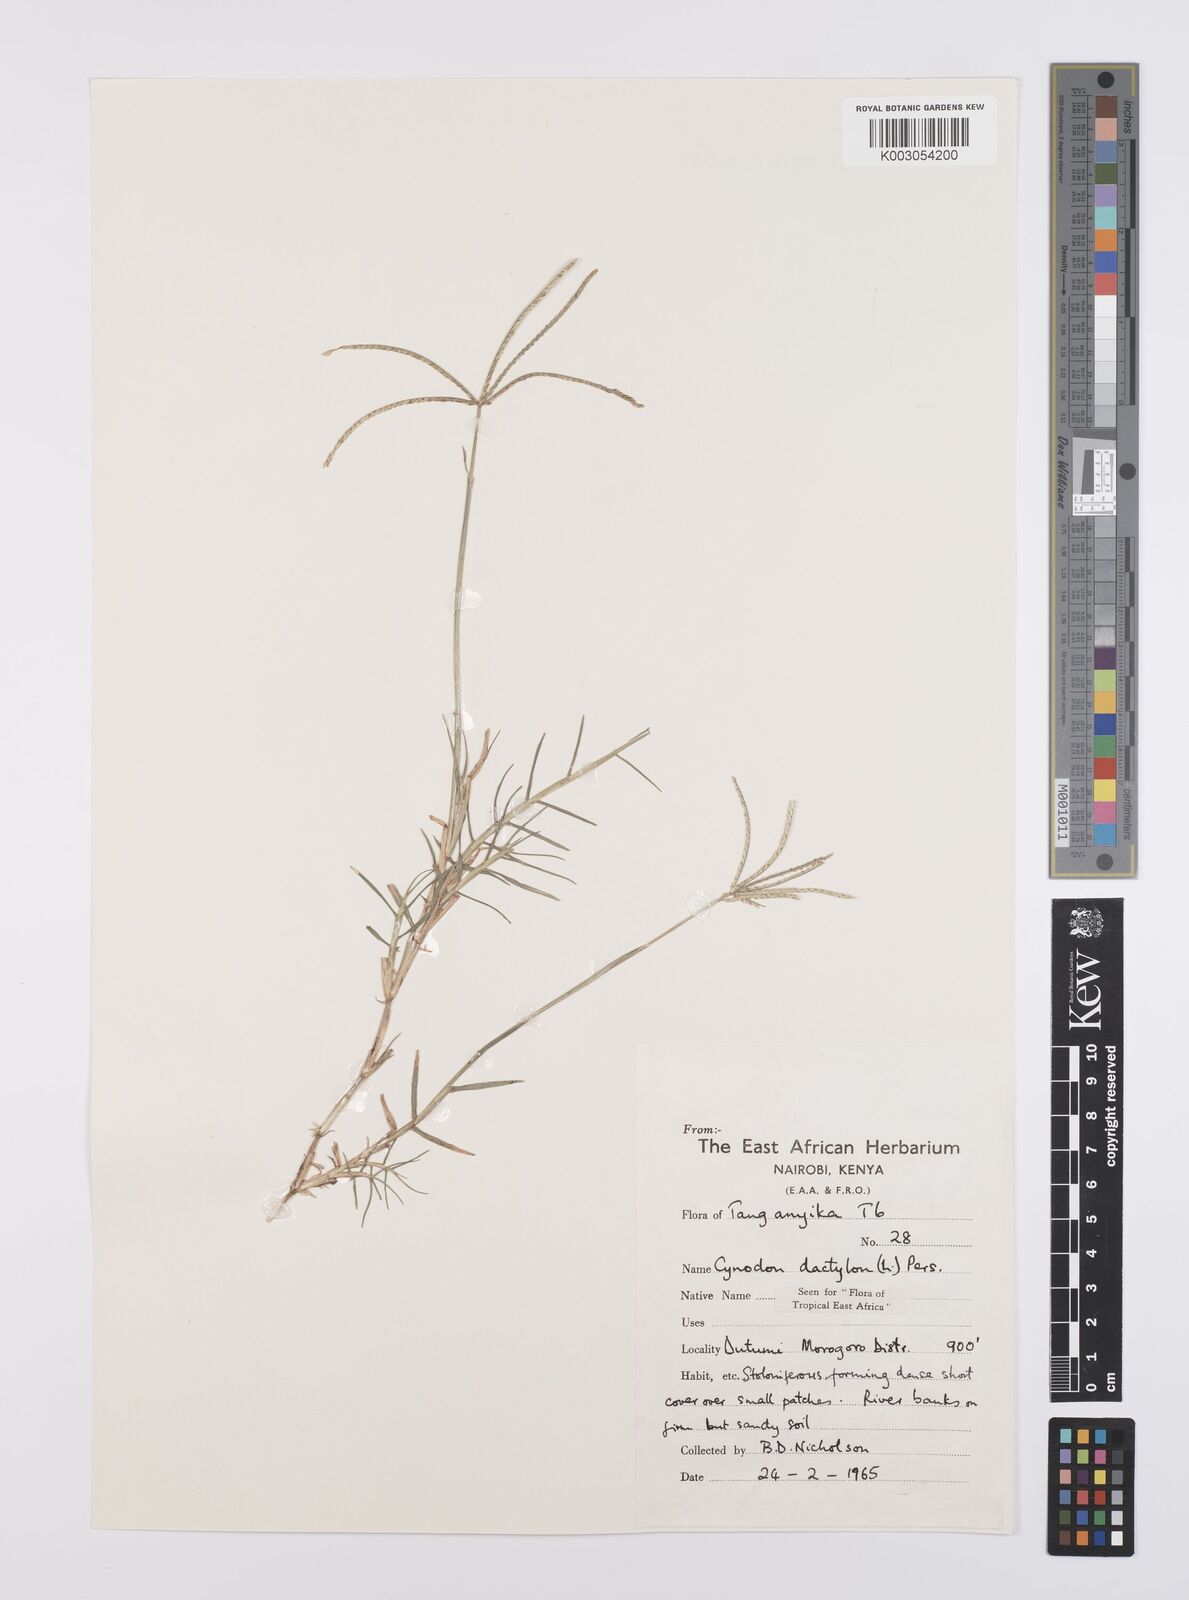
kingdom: Plantae
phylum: Tracheophyta
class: Liliopsida
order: Poales
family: Poaceae
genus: Cynodon
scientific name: Cynodon dactylon
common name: Bermuda grass
